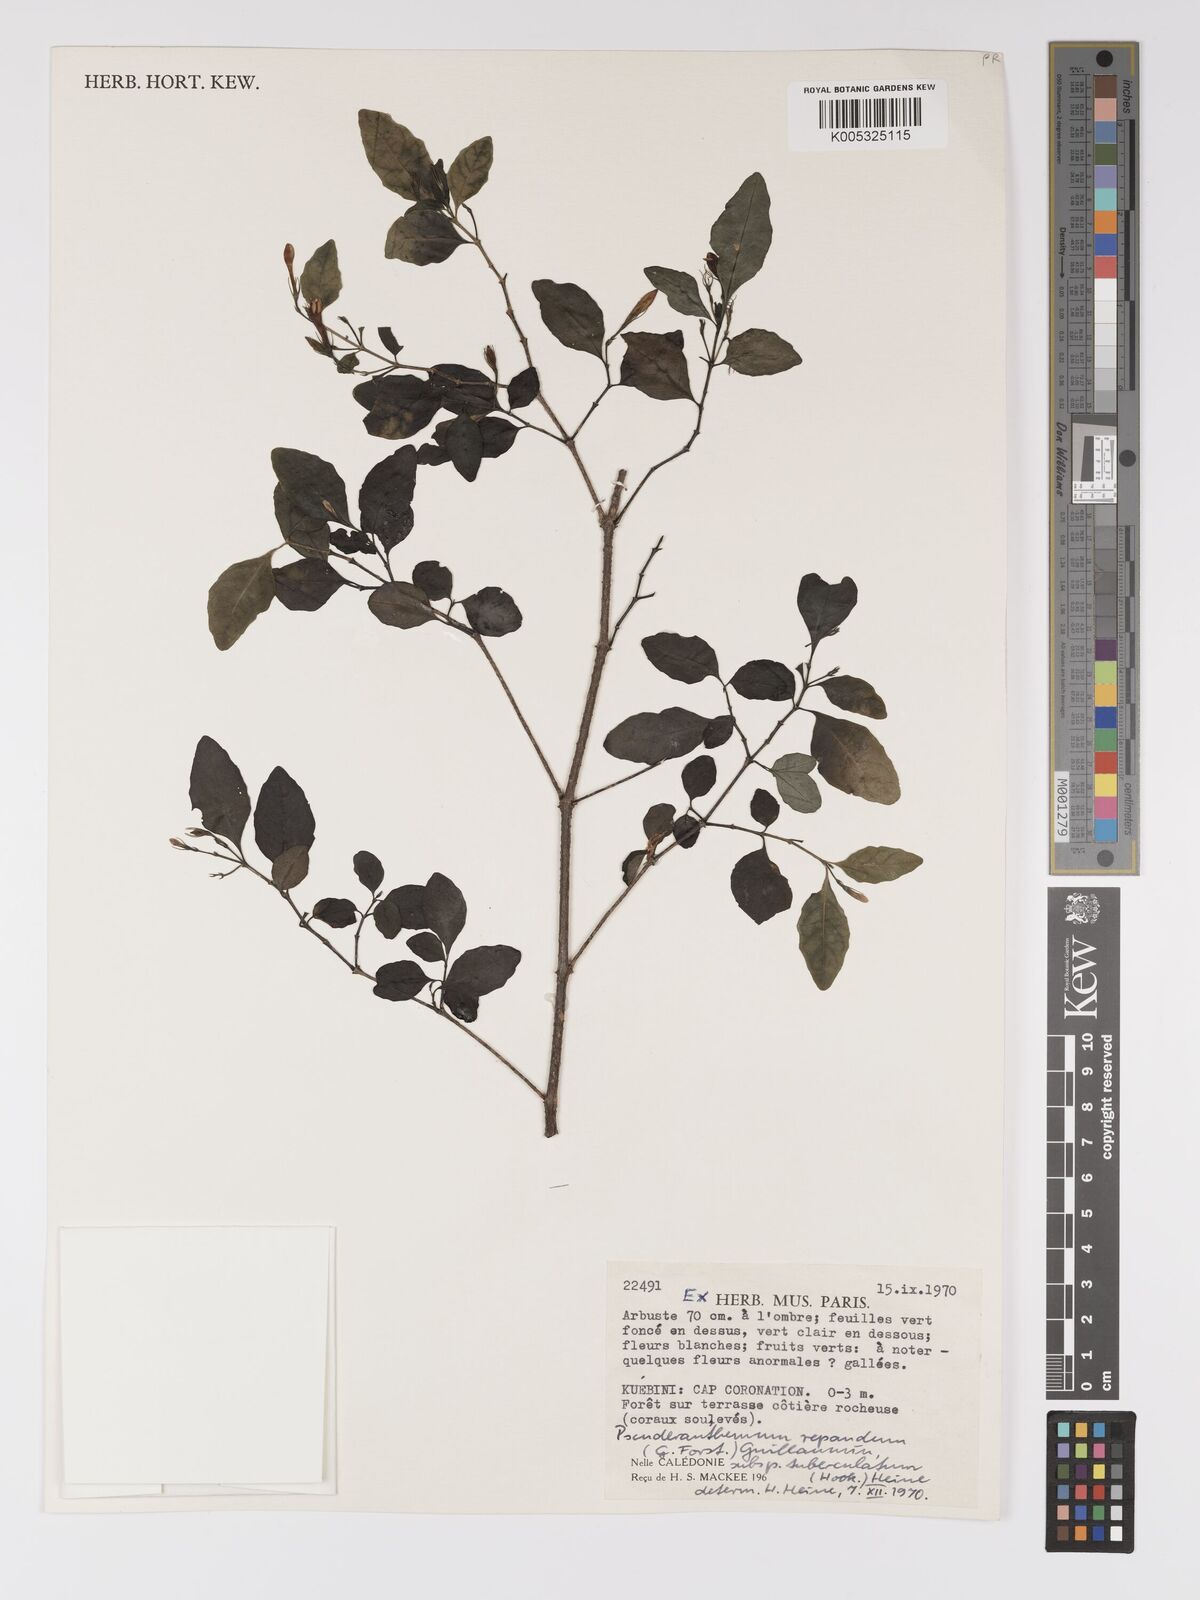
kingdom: Plantae
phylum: Tracheophyta
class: Magnoliopsida
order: Lamiales
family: Acanthaceae
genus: Pseuderanthemum
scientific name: Pseuderanthemum repandum
